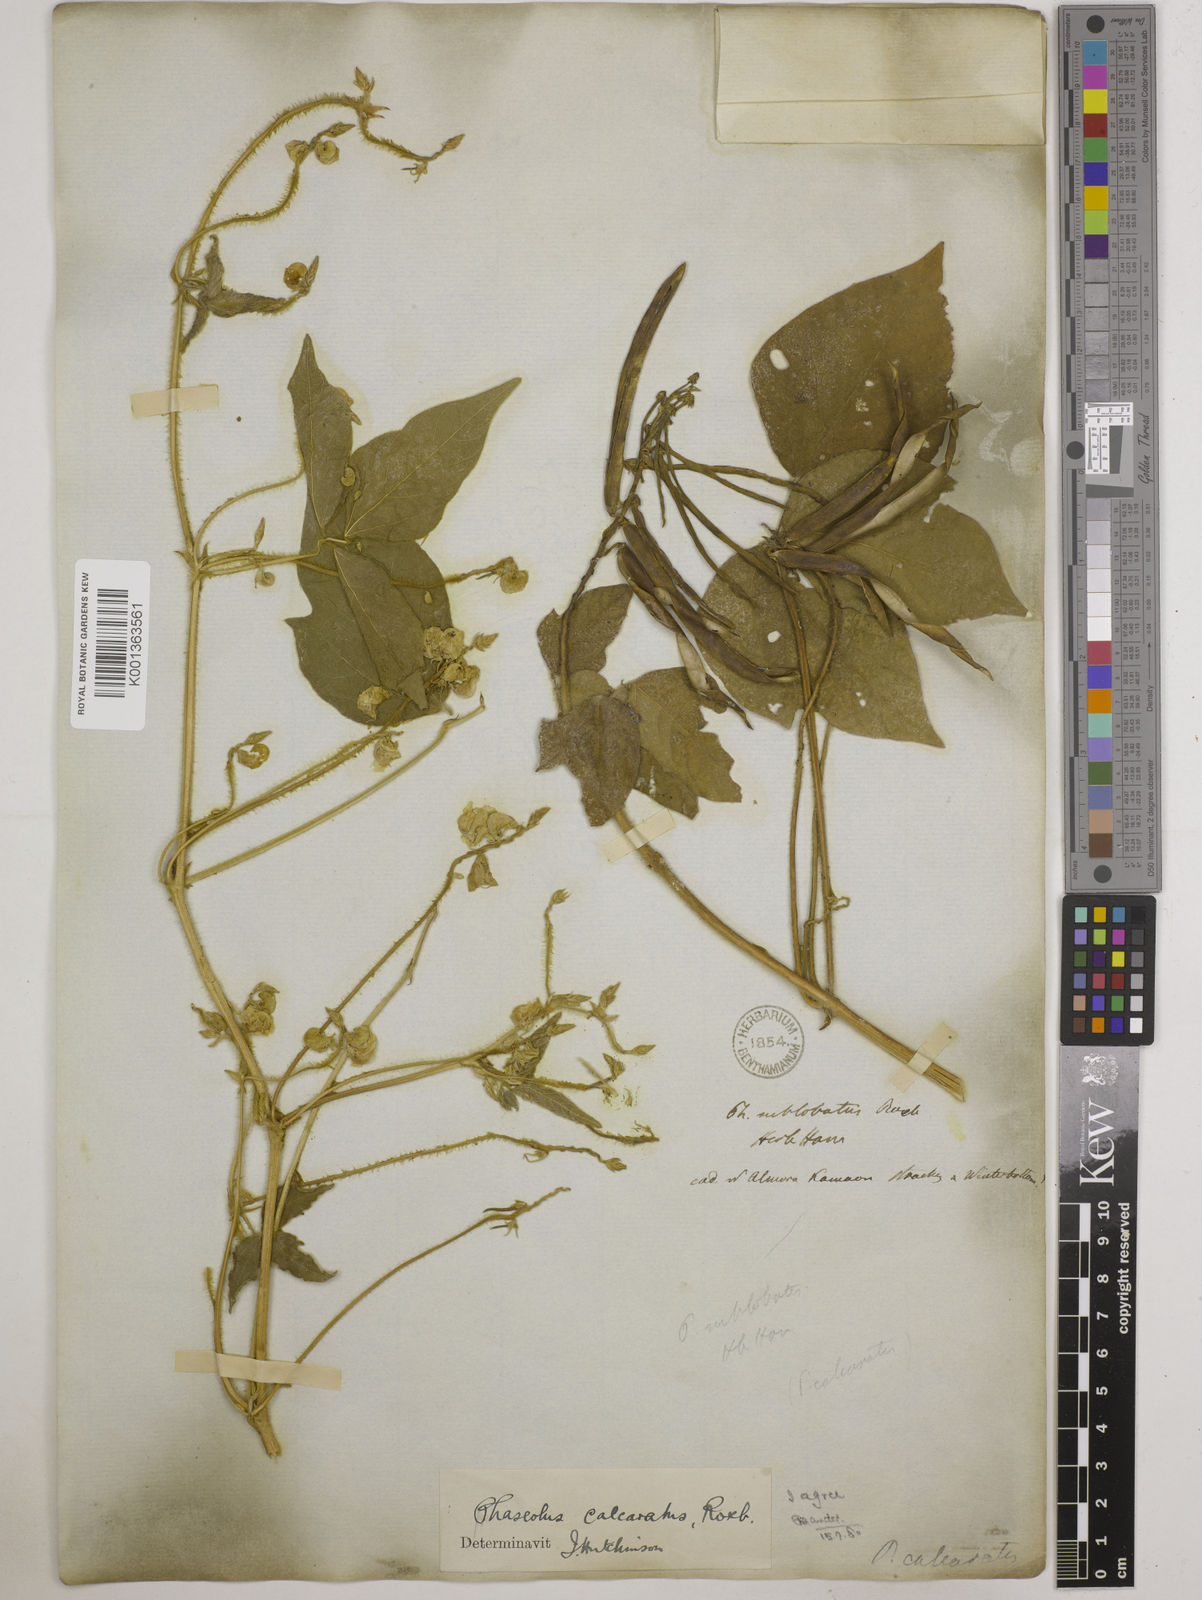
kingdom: Plantae
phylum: Tracheophyta
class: Magnoliopsida
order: Fabales
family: Fabaceae
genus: Vigna
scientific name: Vigna umbellata
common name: Oriental-bean
